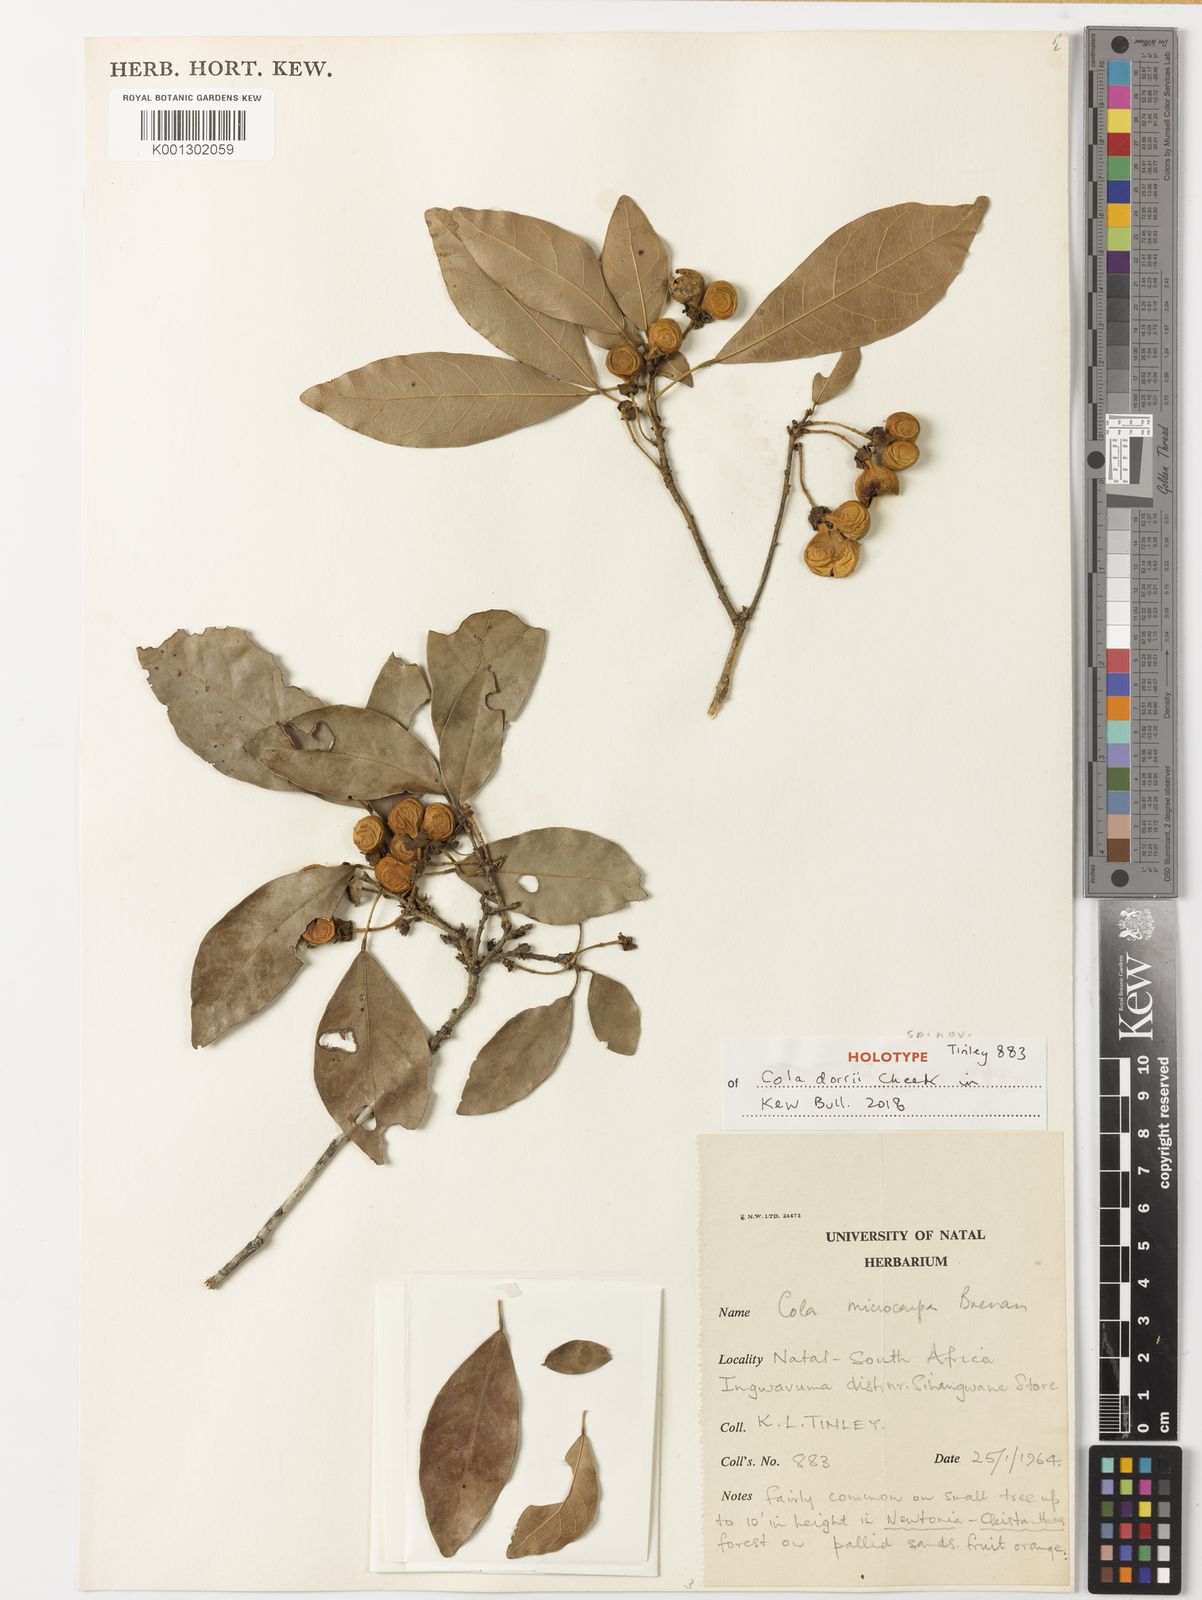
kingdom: Plantae
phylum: Tracheophyta
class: Magnoliopsida
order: Malvales
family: Malvaceae
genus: Cola
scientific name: Cola dorrii
